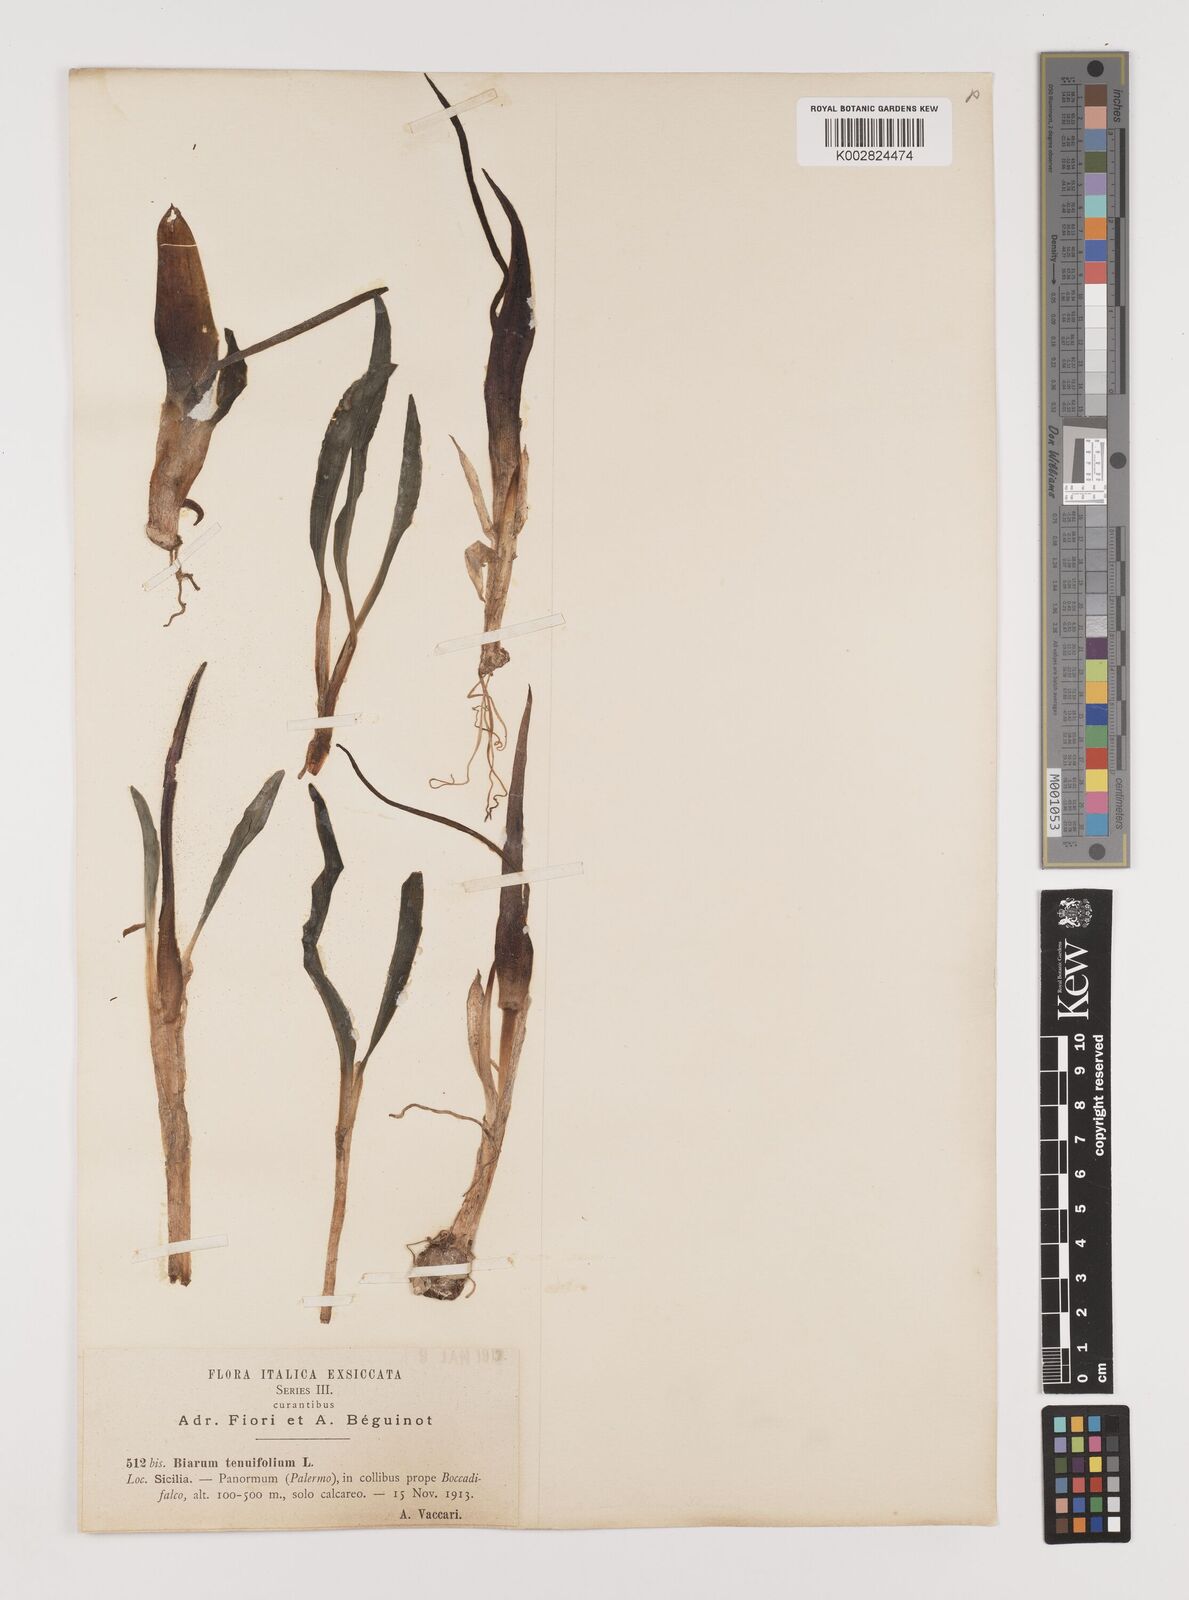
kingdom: Plantae
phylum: Tracheophyta
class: Liliopsida
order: Alismatales
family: Araceae
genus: Biarum
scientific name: Biarum tenuifolium
